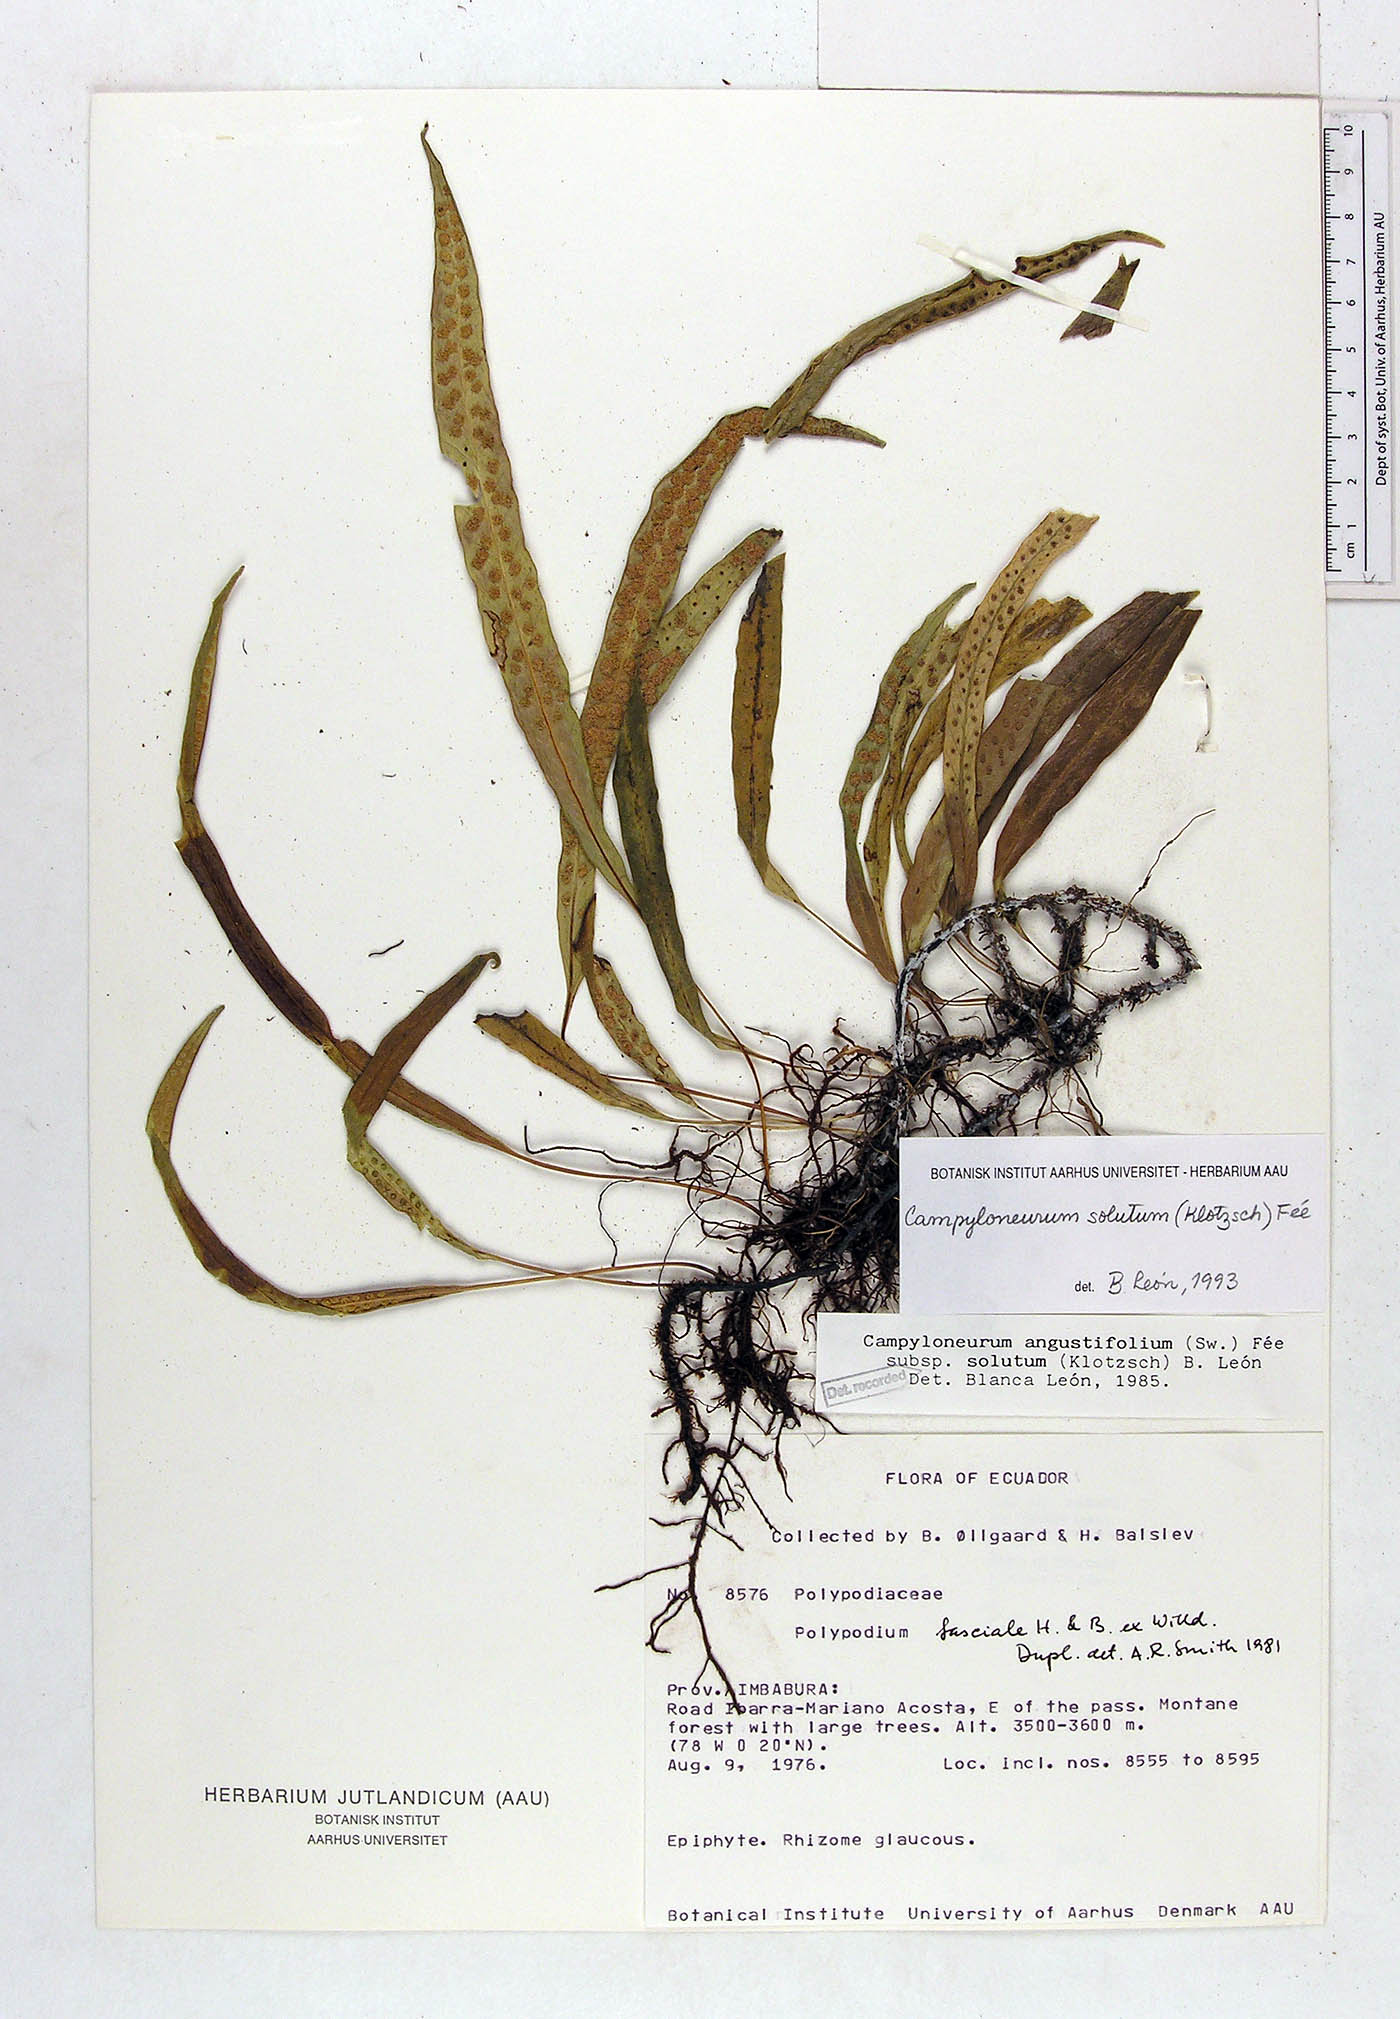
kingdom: Plantae
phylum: Tracheophyta
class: Polypodiopsida
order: Polypodiales
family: Polypodiaceae
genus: Campyloneurum
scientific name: Campyloneurum solutum
